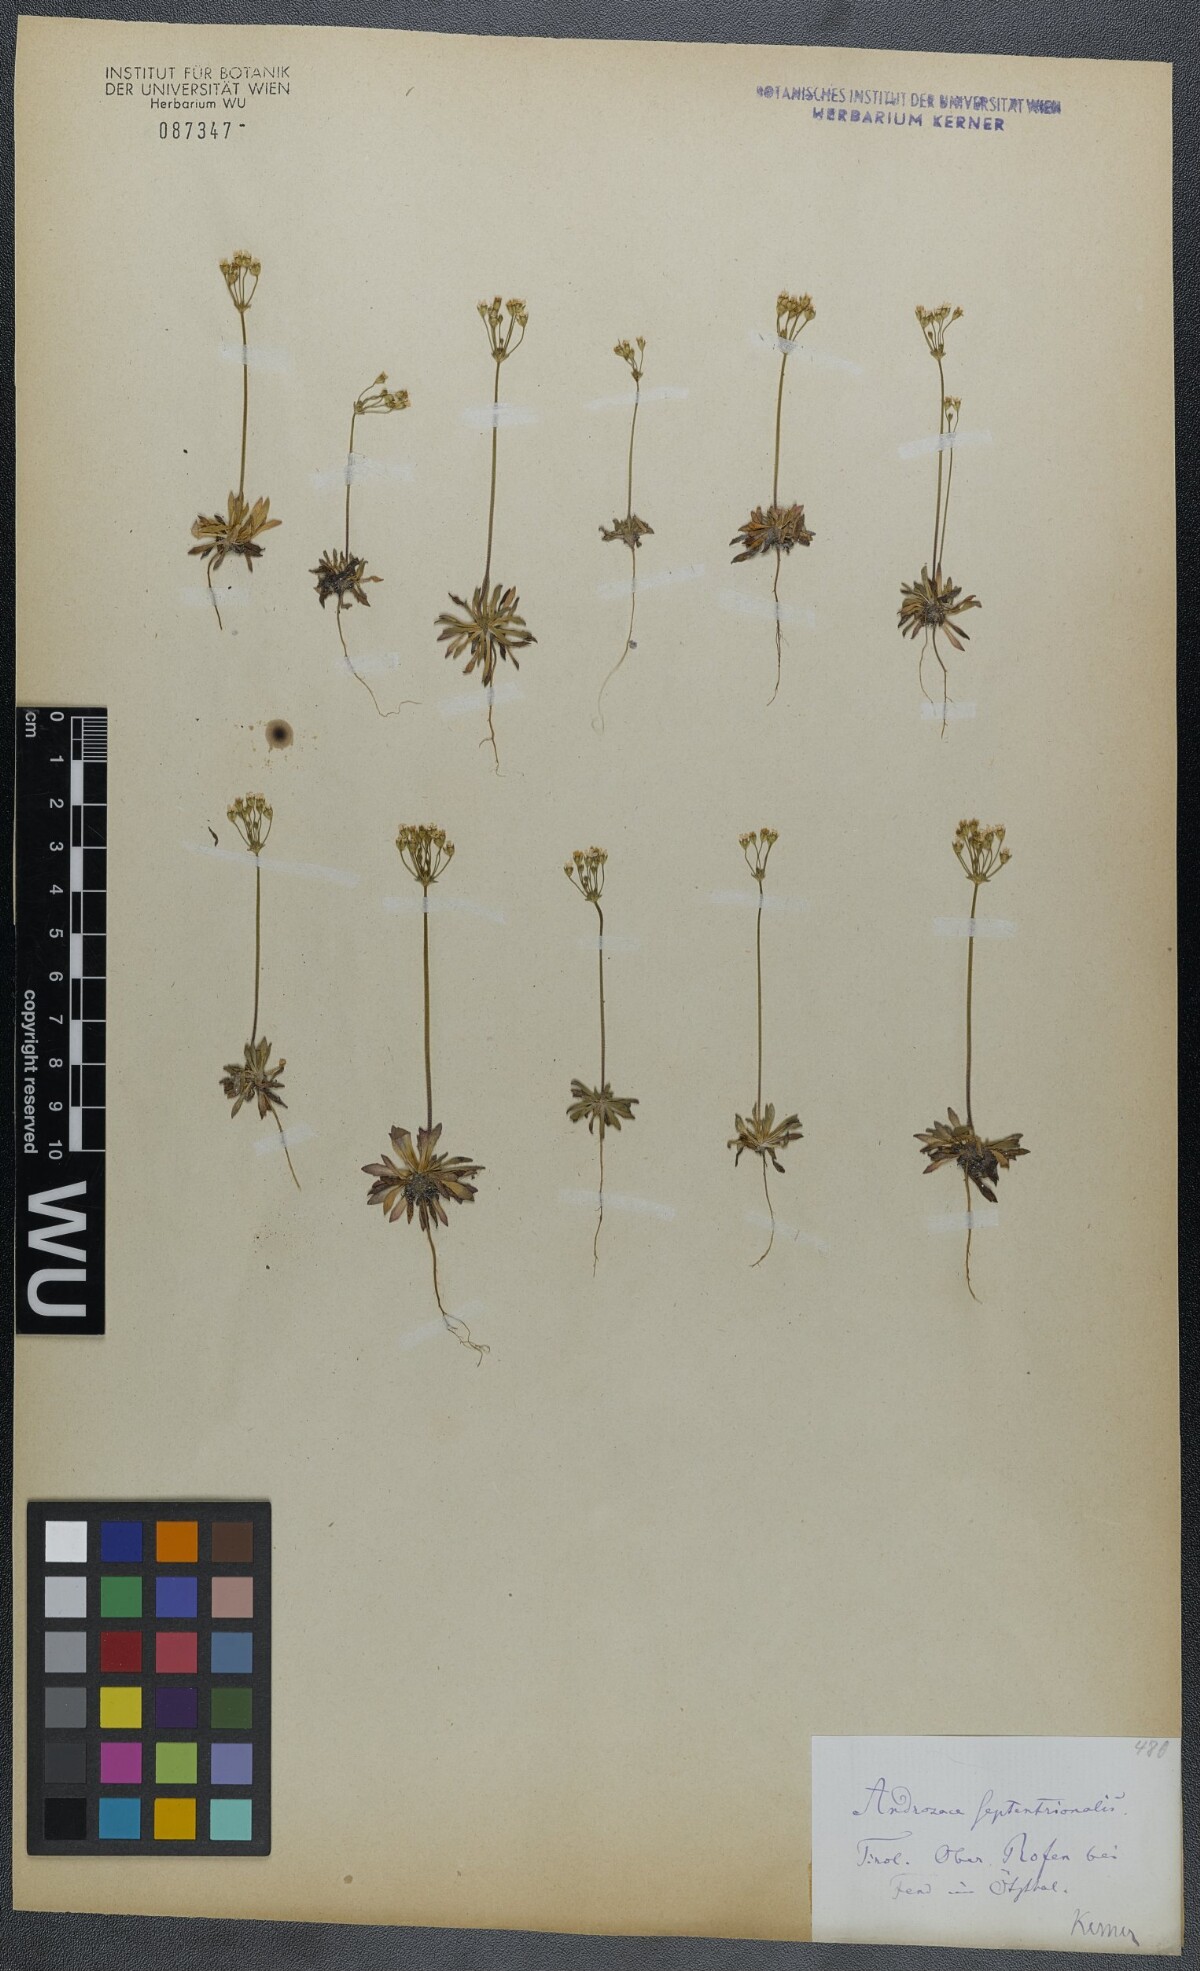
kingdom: Plantae
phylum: Tracheophyta
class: Magnoliopsida
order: Ericales
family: Primulaceae
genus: Androsace
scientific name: Androsace septentrionalis
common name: Hairy northern fairy-candelabra
